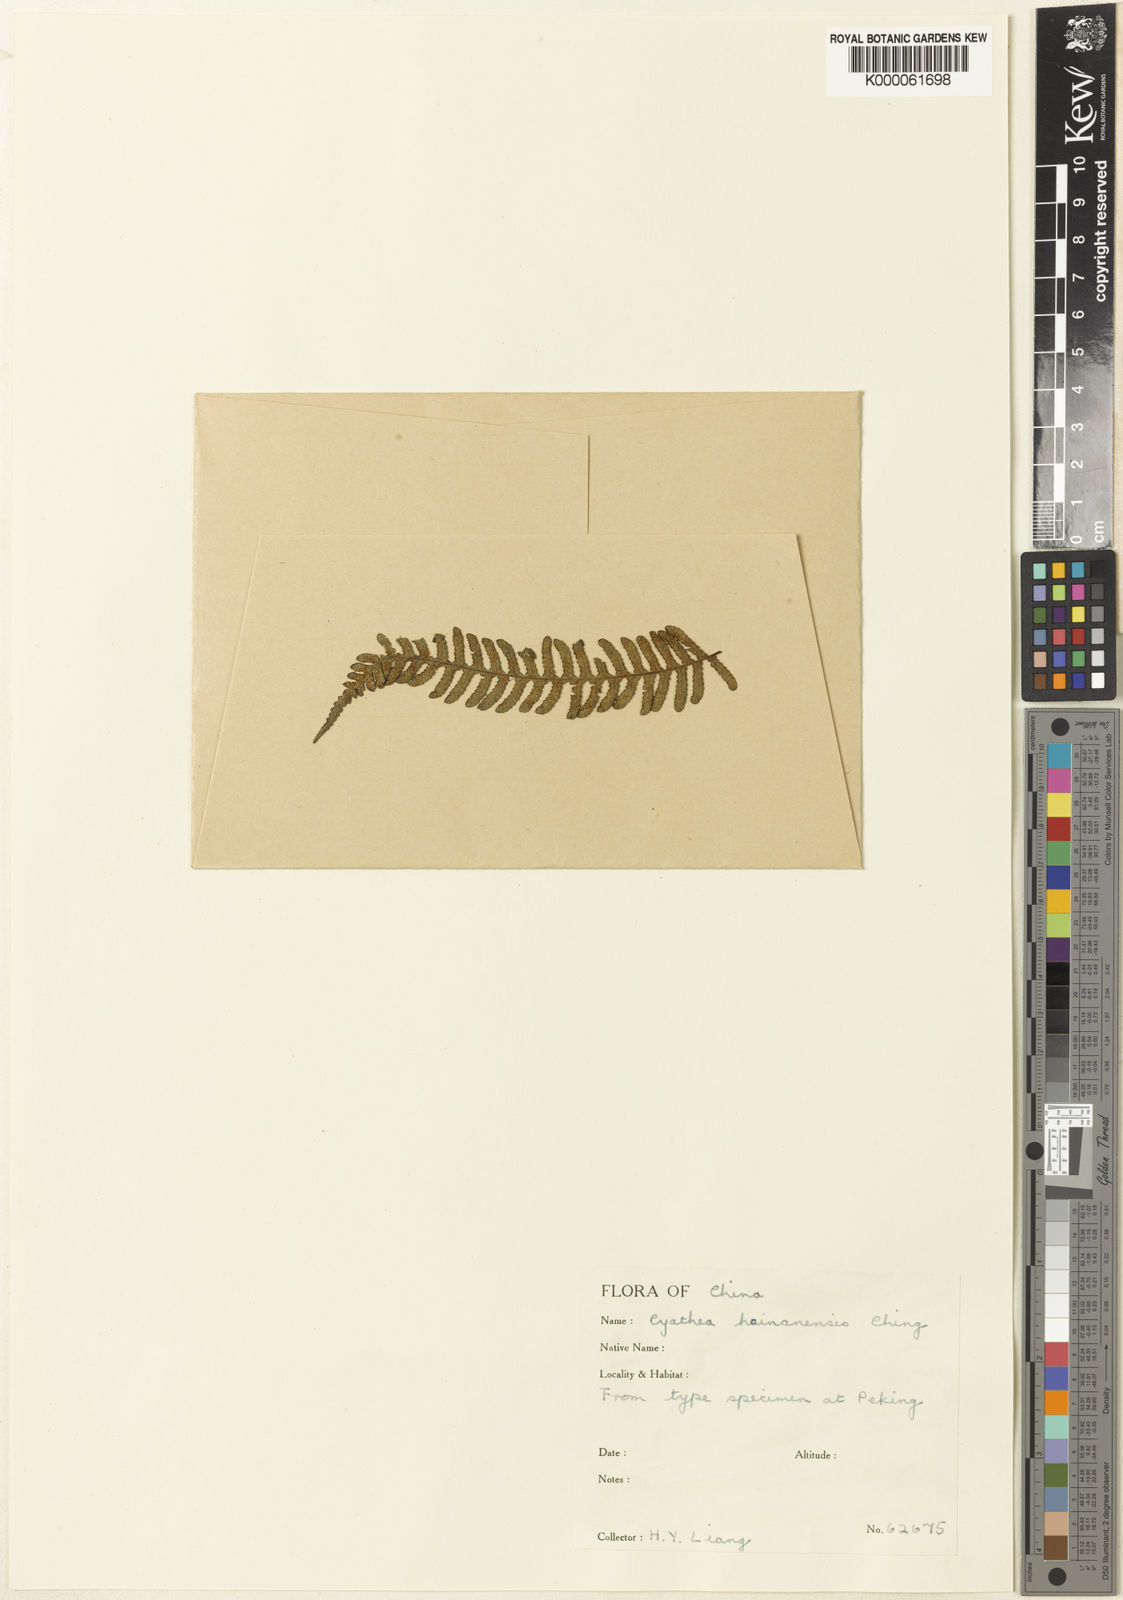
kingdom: Plantae
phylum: Tracheophyta
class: Polypodiopsida
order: Cyatheales
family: Cyatheaceae
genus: Sphaeropteris
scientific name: Sphaeropteris brunoniana
